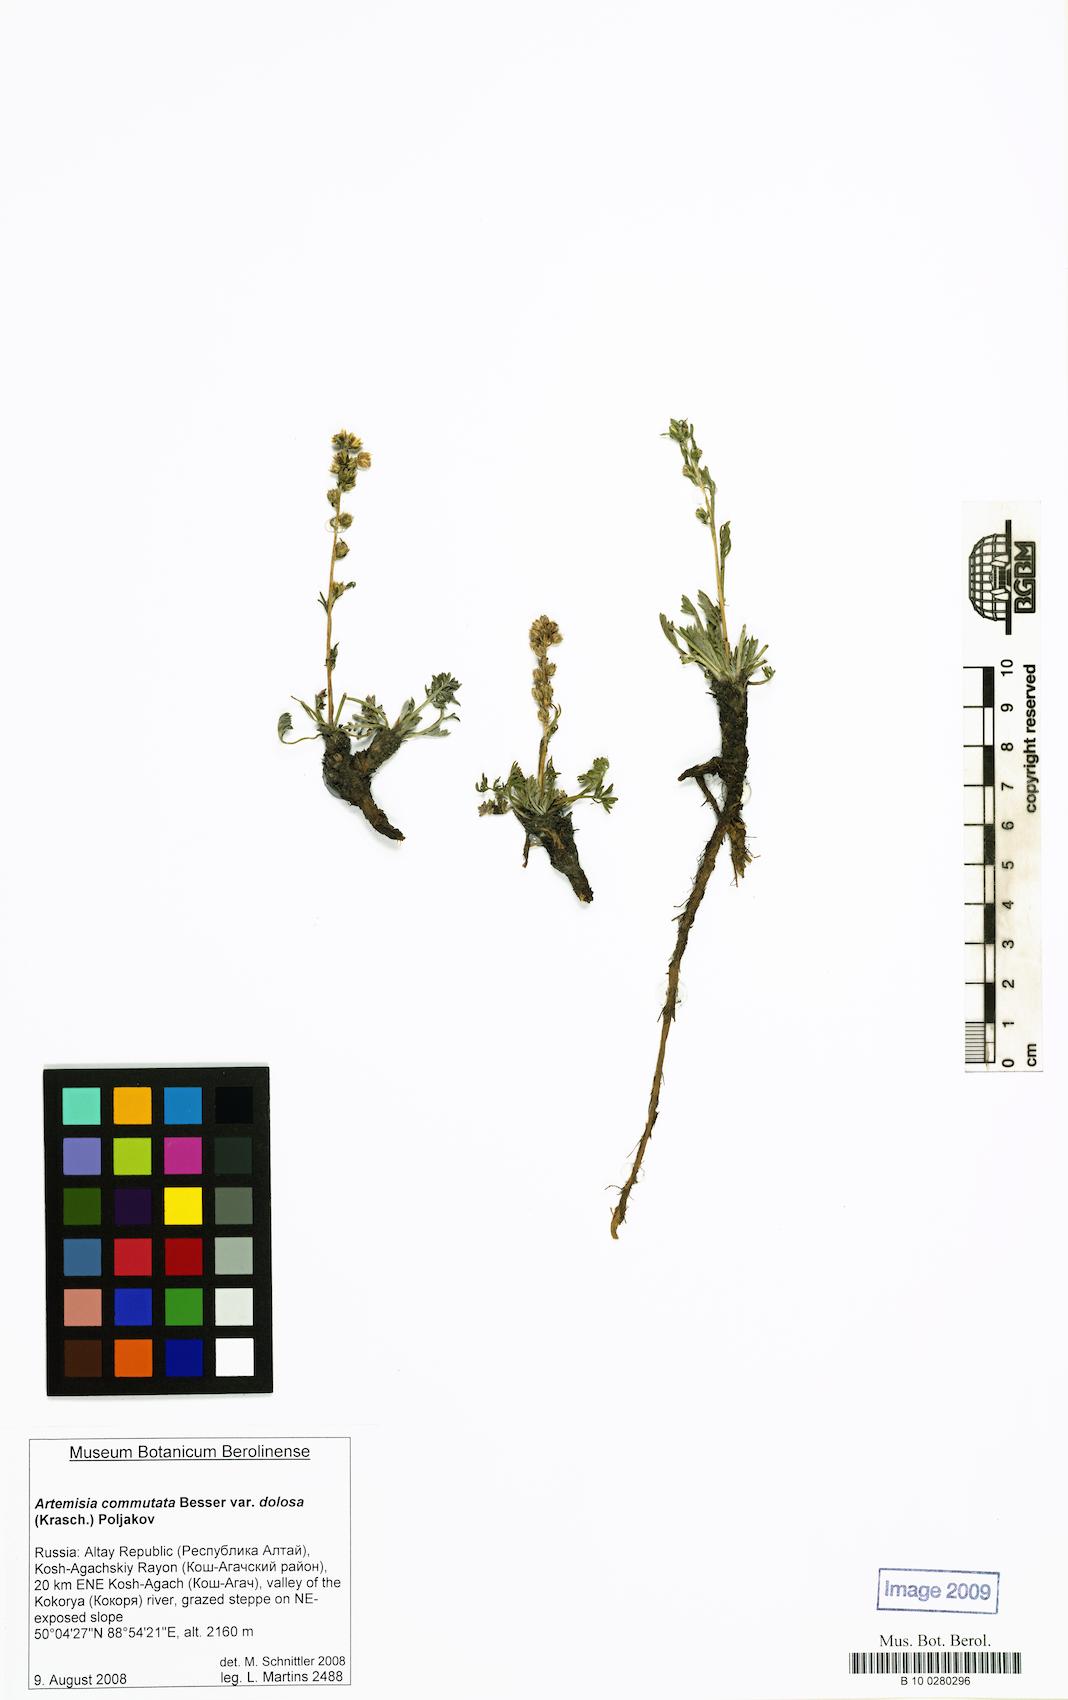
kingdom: Plantae
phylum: Tracheophyta
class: Magnoliopsida
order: Asterales
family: Asteraceae
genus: Artemisia
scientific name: Artemisia dolosa
